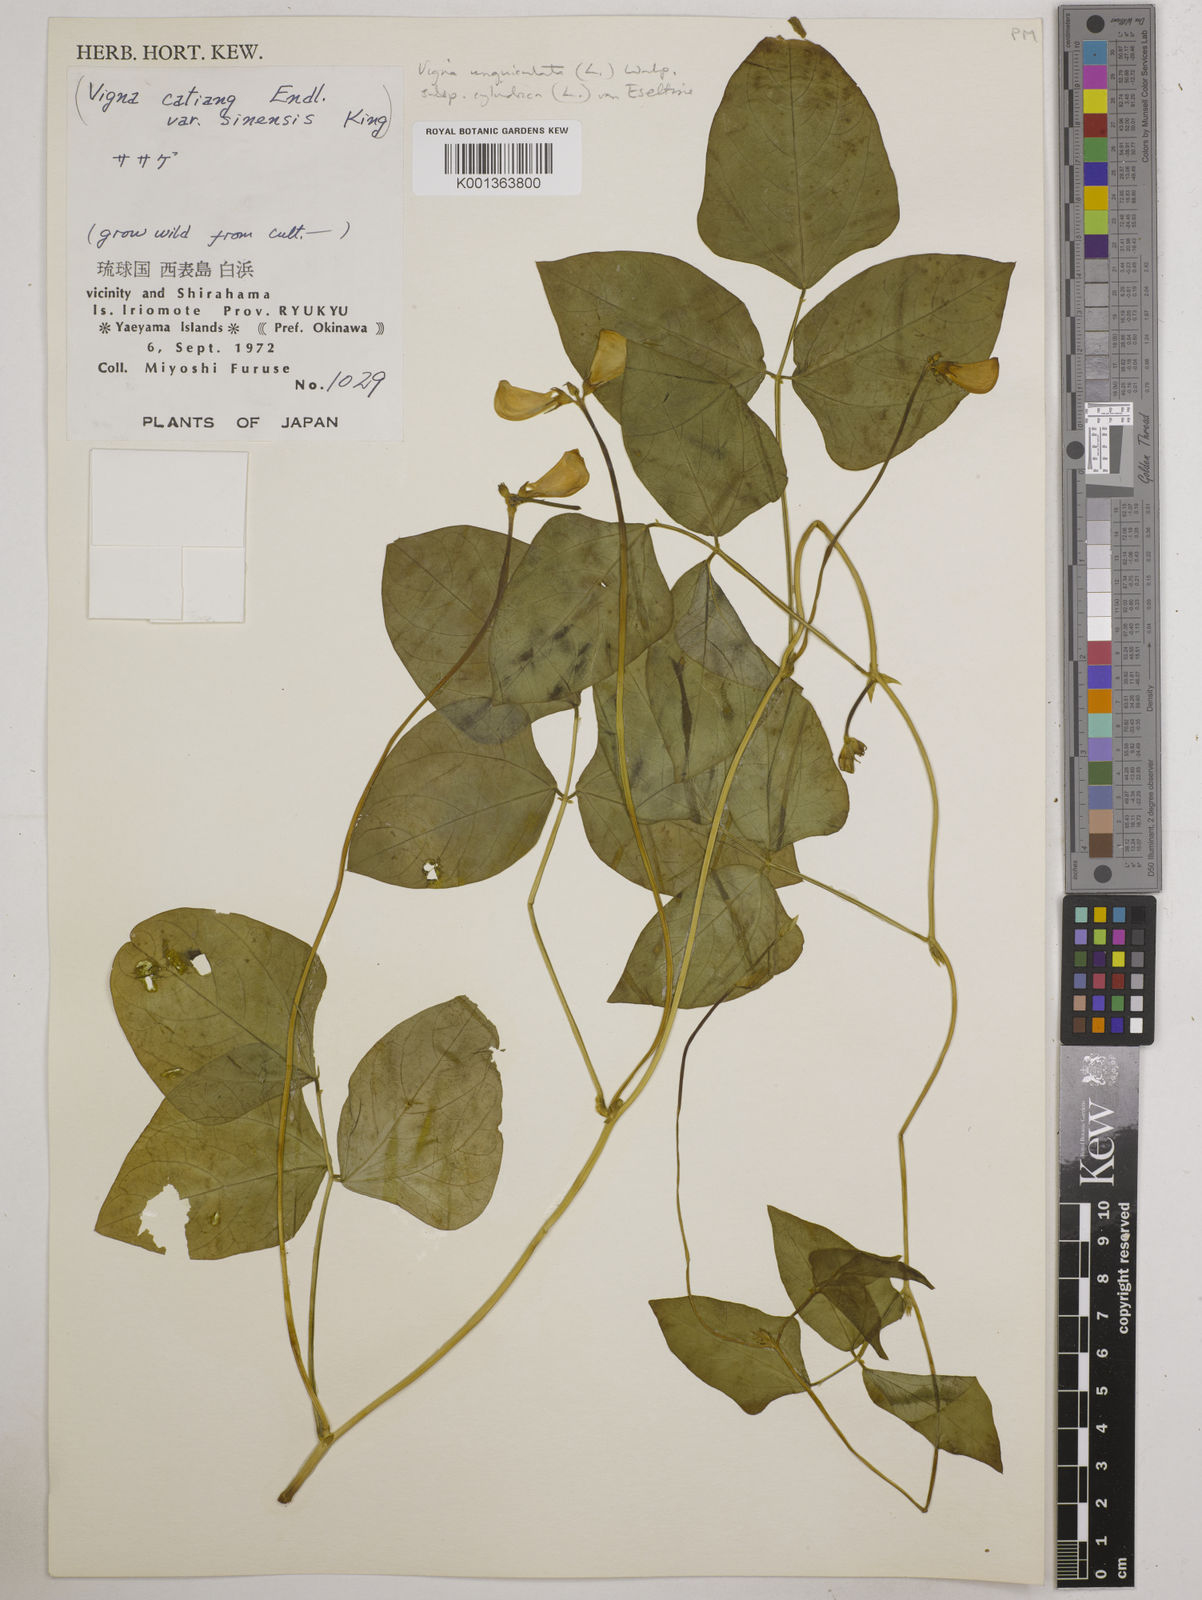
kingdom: Plantae
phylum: Tracheophyta
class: Magnoliopsida
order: Fabales
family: Fabaceae
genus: Vigna
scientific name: Vigna
